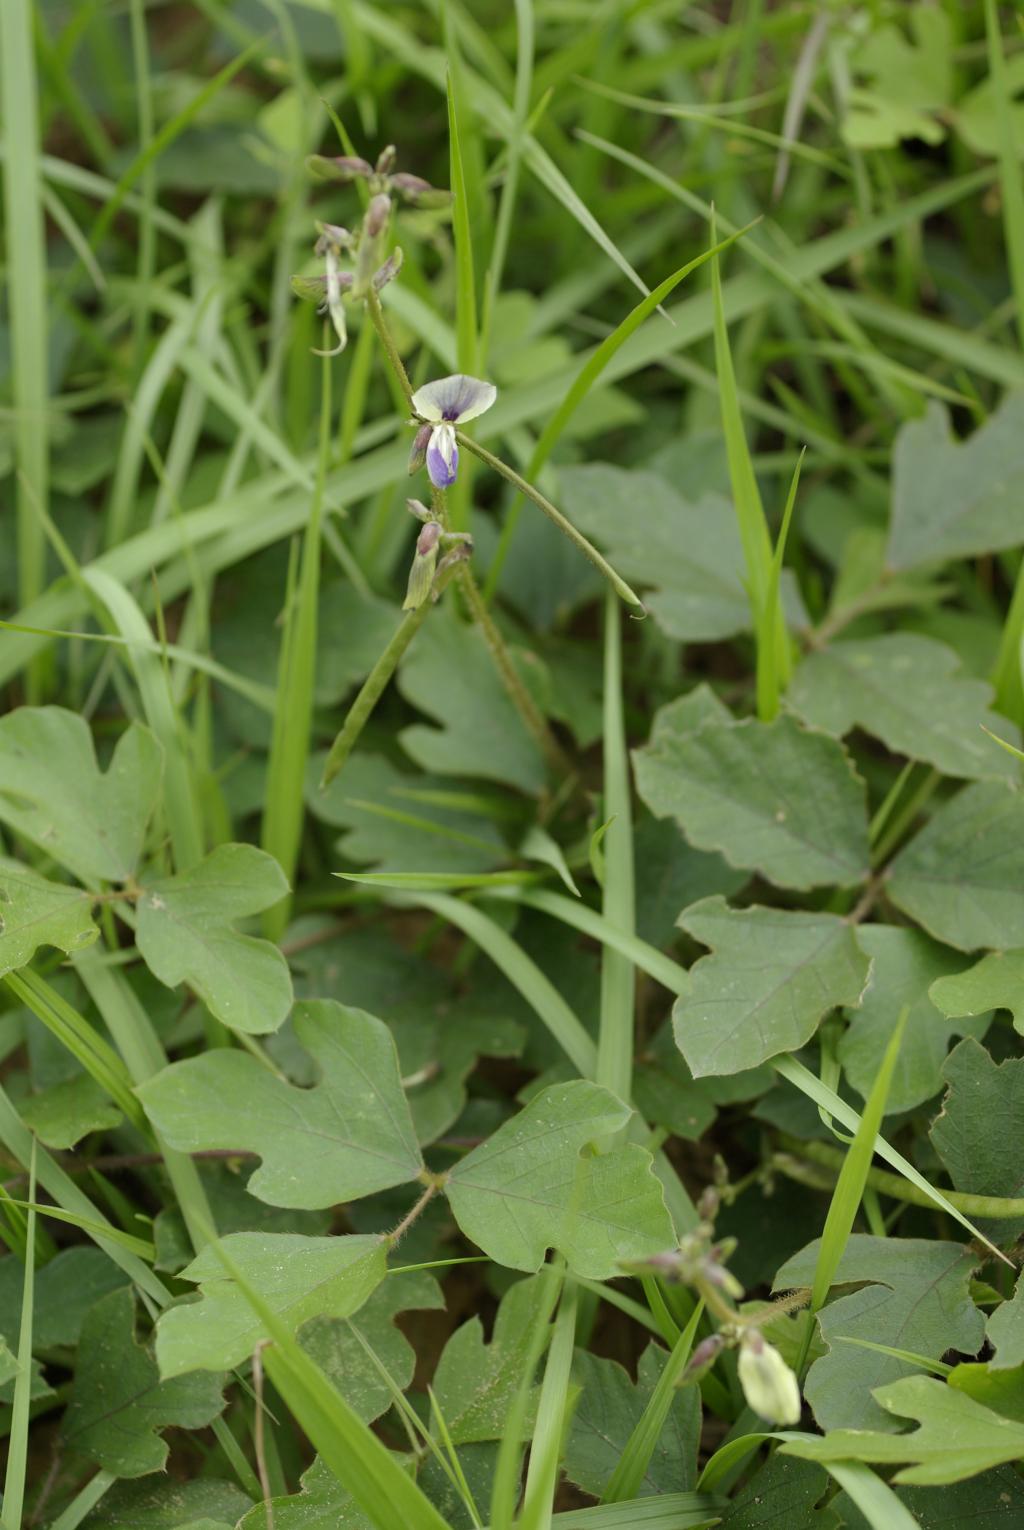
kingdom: Plantae
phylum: Tracheophyta
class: Magnoliopsida
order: Fabales
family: Fabaceae
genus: Neustanthus
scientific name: Neustanthus phaseoloides
